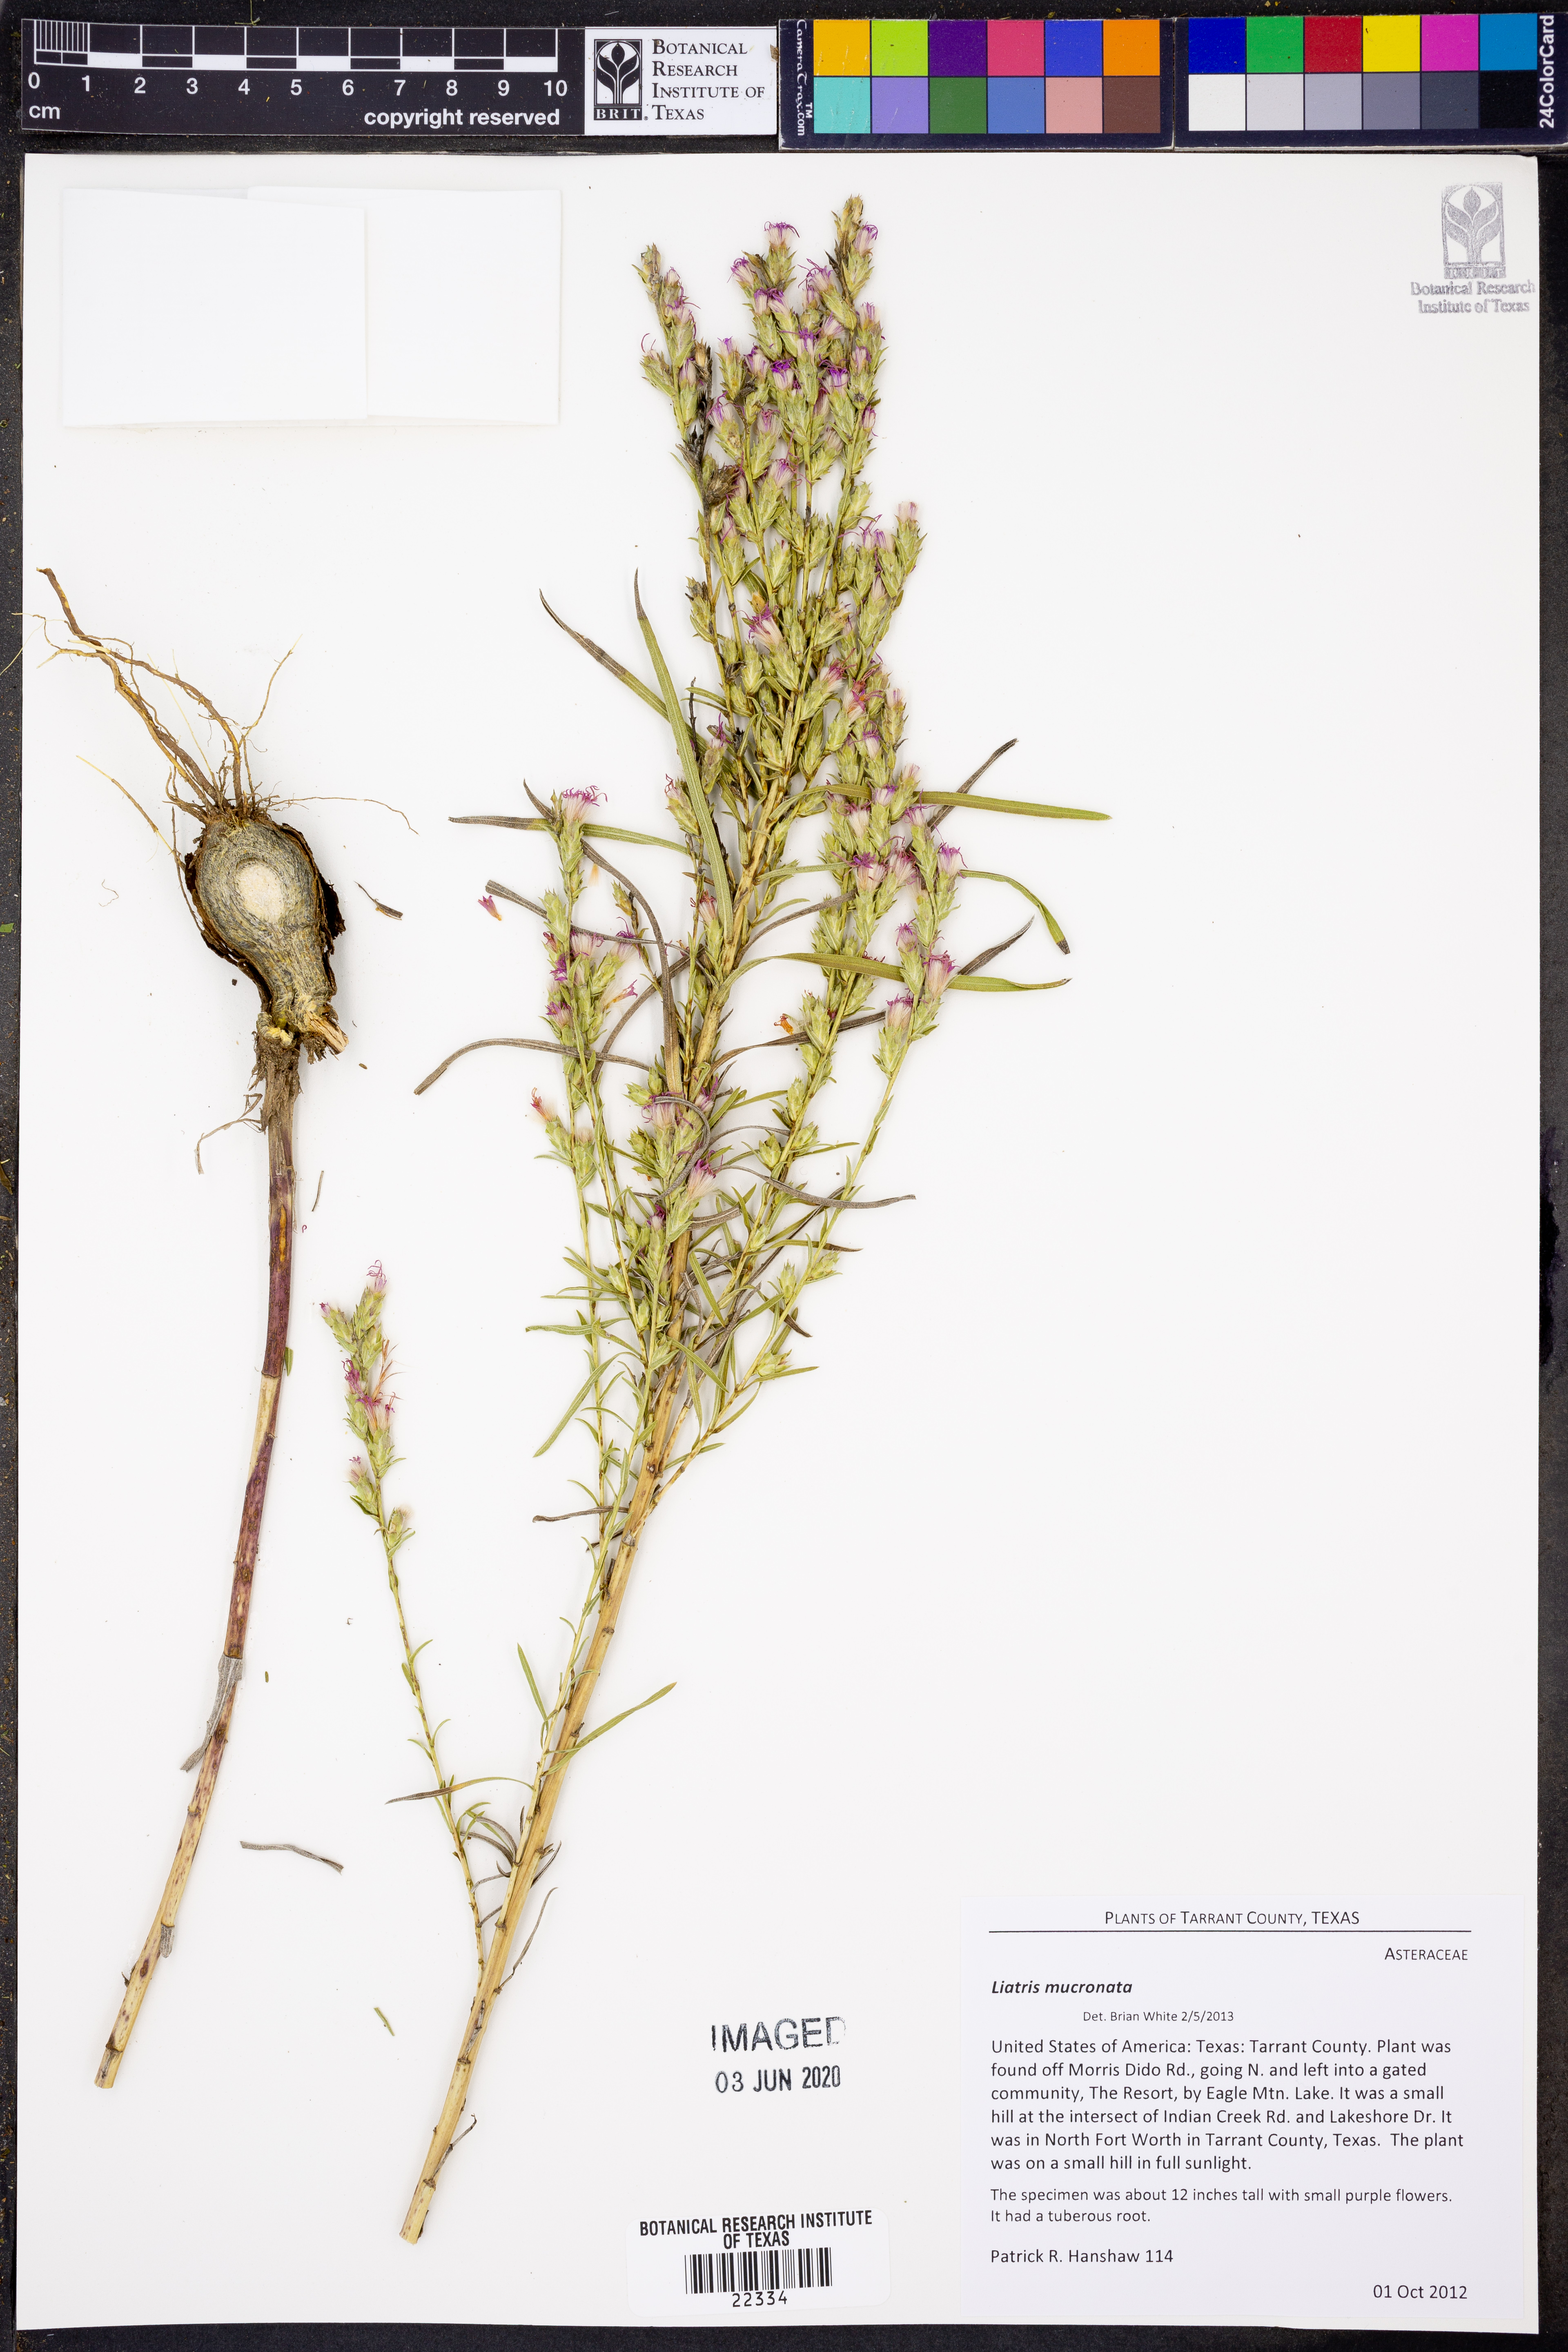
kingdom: Plantae
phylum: Tracheophyta
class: Magnoliopsida
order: Asterales
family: Asteraceae
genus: Liatris
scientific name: Liatris mucronata
